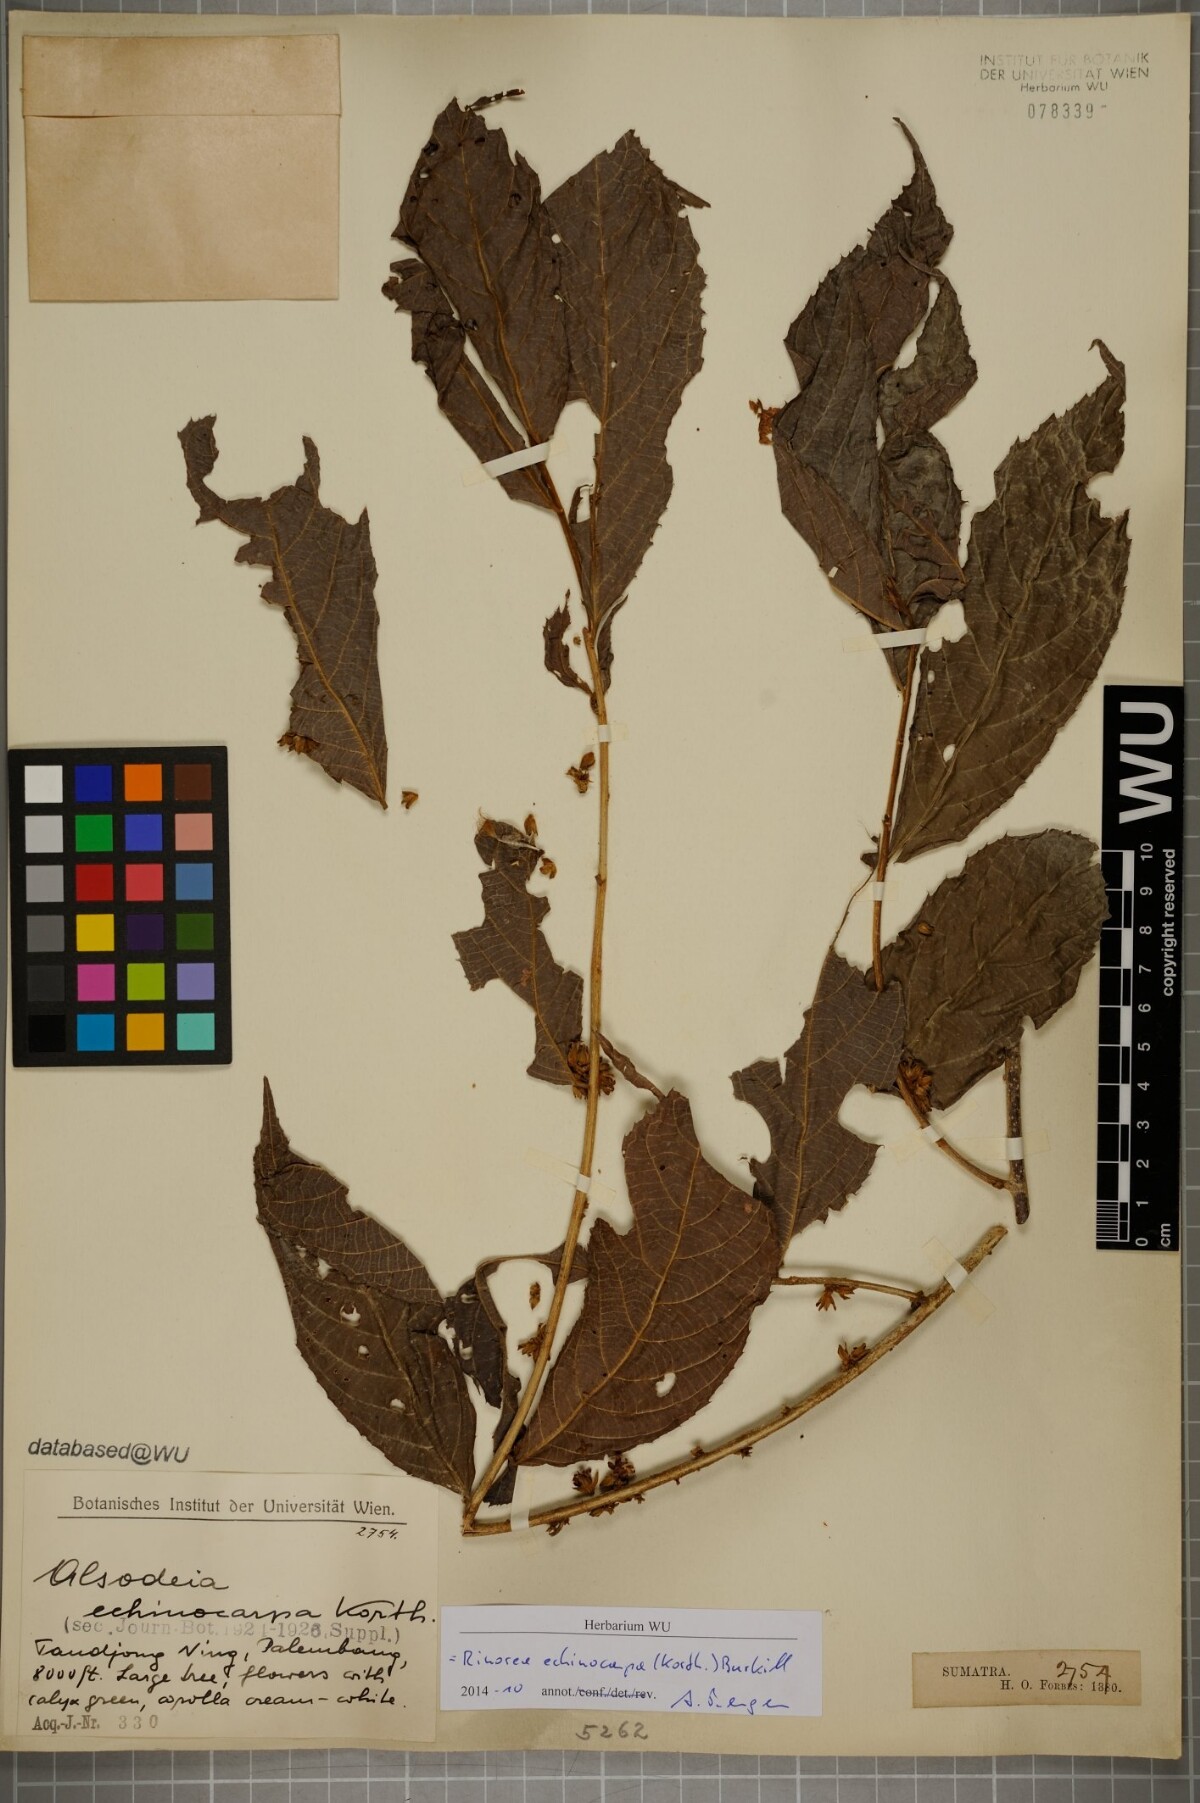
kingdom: Plantae
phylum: Tracheophyta
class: Magnoliopsida
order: Malpighiales
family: Violaceae
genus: Rinorea
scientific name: Rinorea anguifera
